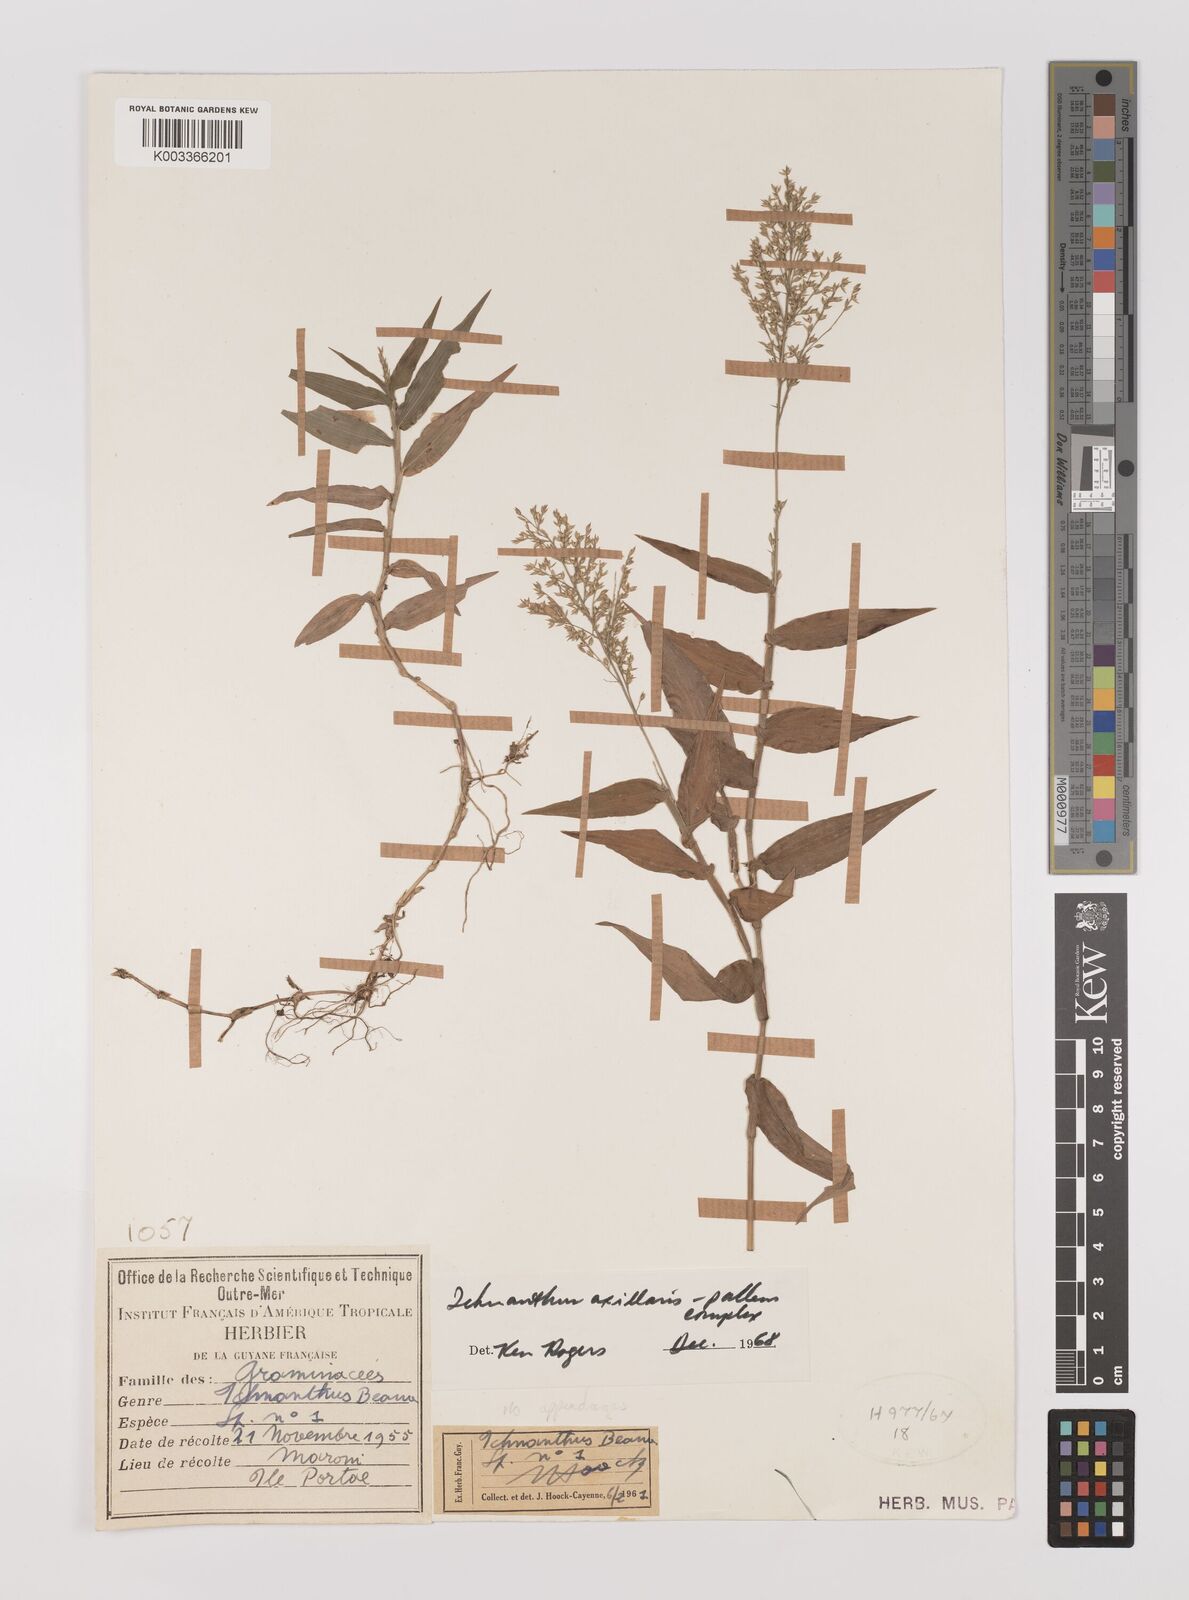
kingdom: Plantae
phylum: Tracheophyta
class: Liliopsida
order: Poales
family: Poaceae
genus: Ichnanthus
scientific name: Ichnanthus pallens
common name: Water grass
